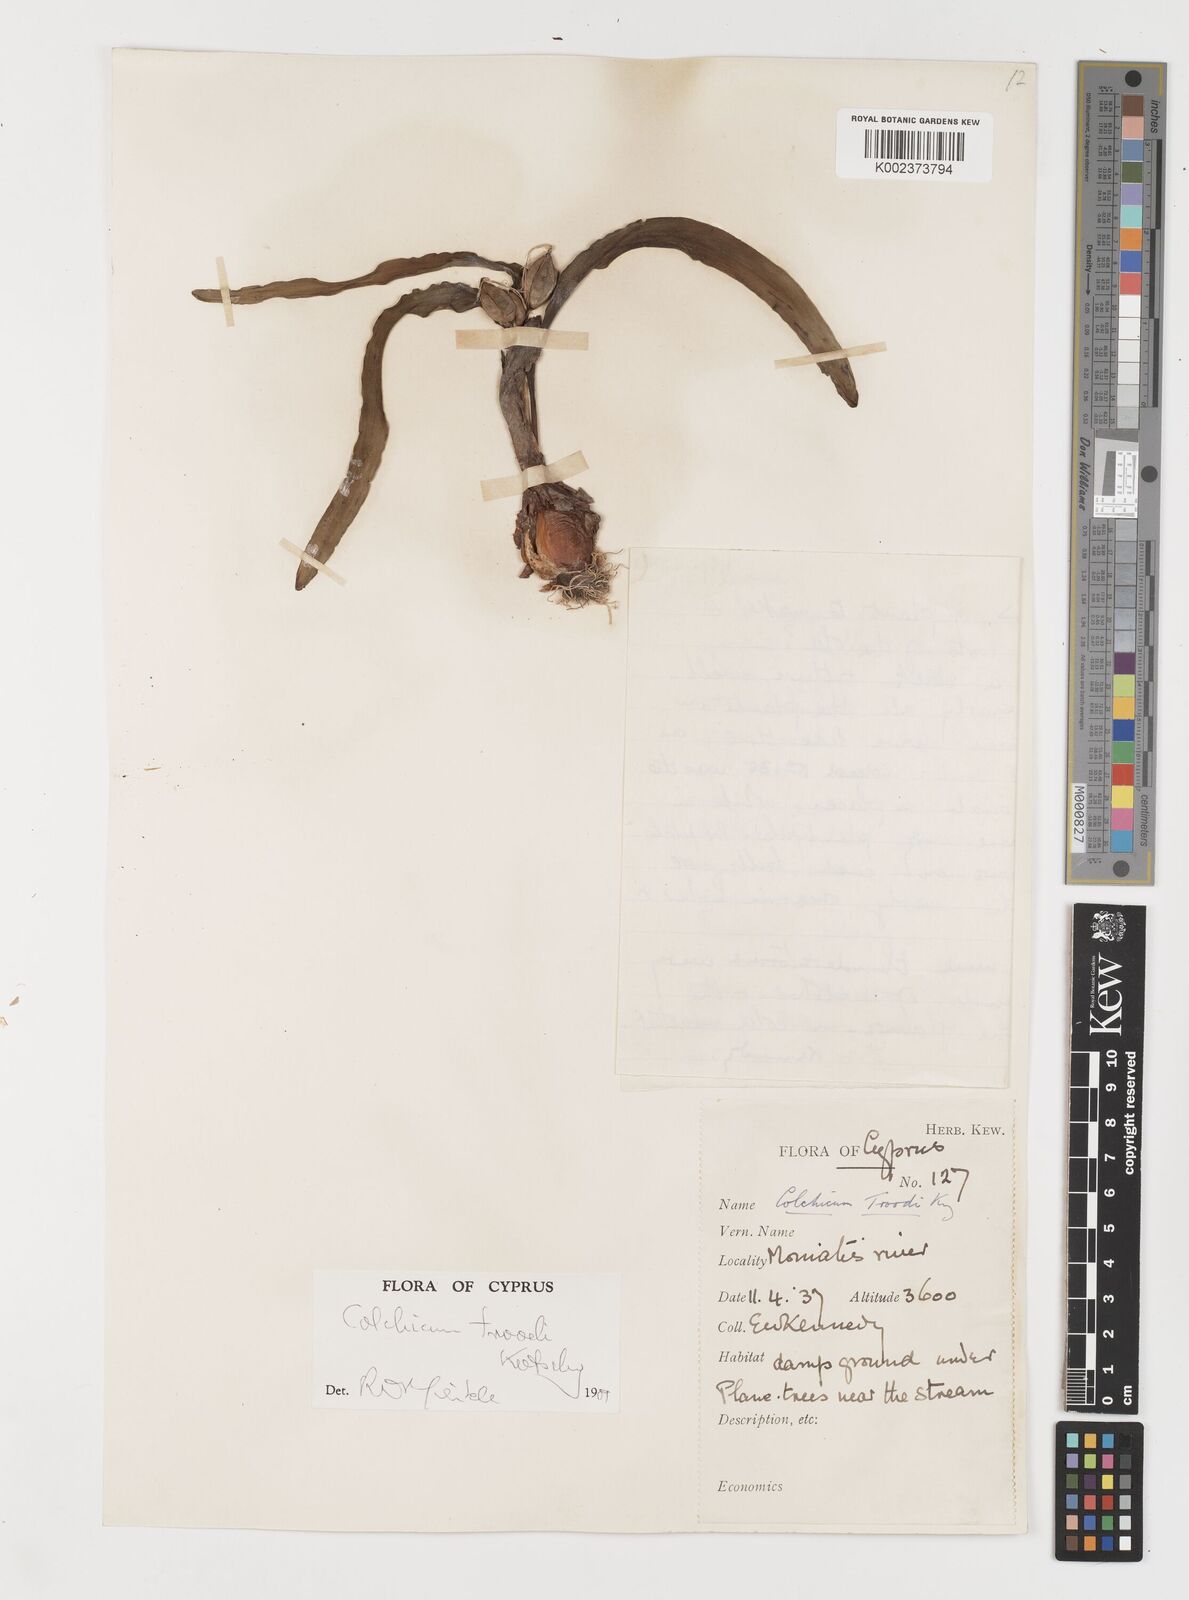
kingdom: Plantae
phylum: Tracheophyta
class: Liliopsida
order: Liliales
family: Colchicaceae
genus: Colchicum
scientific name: Colchicum troodi
